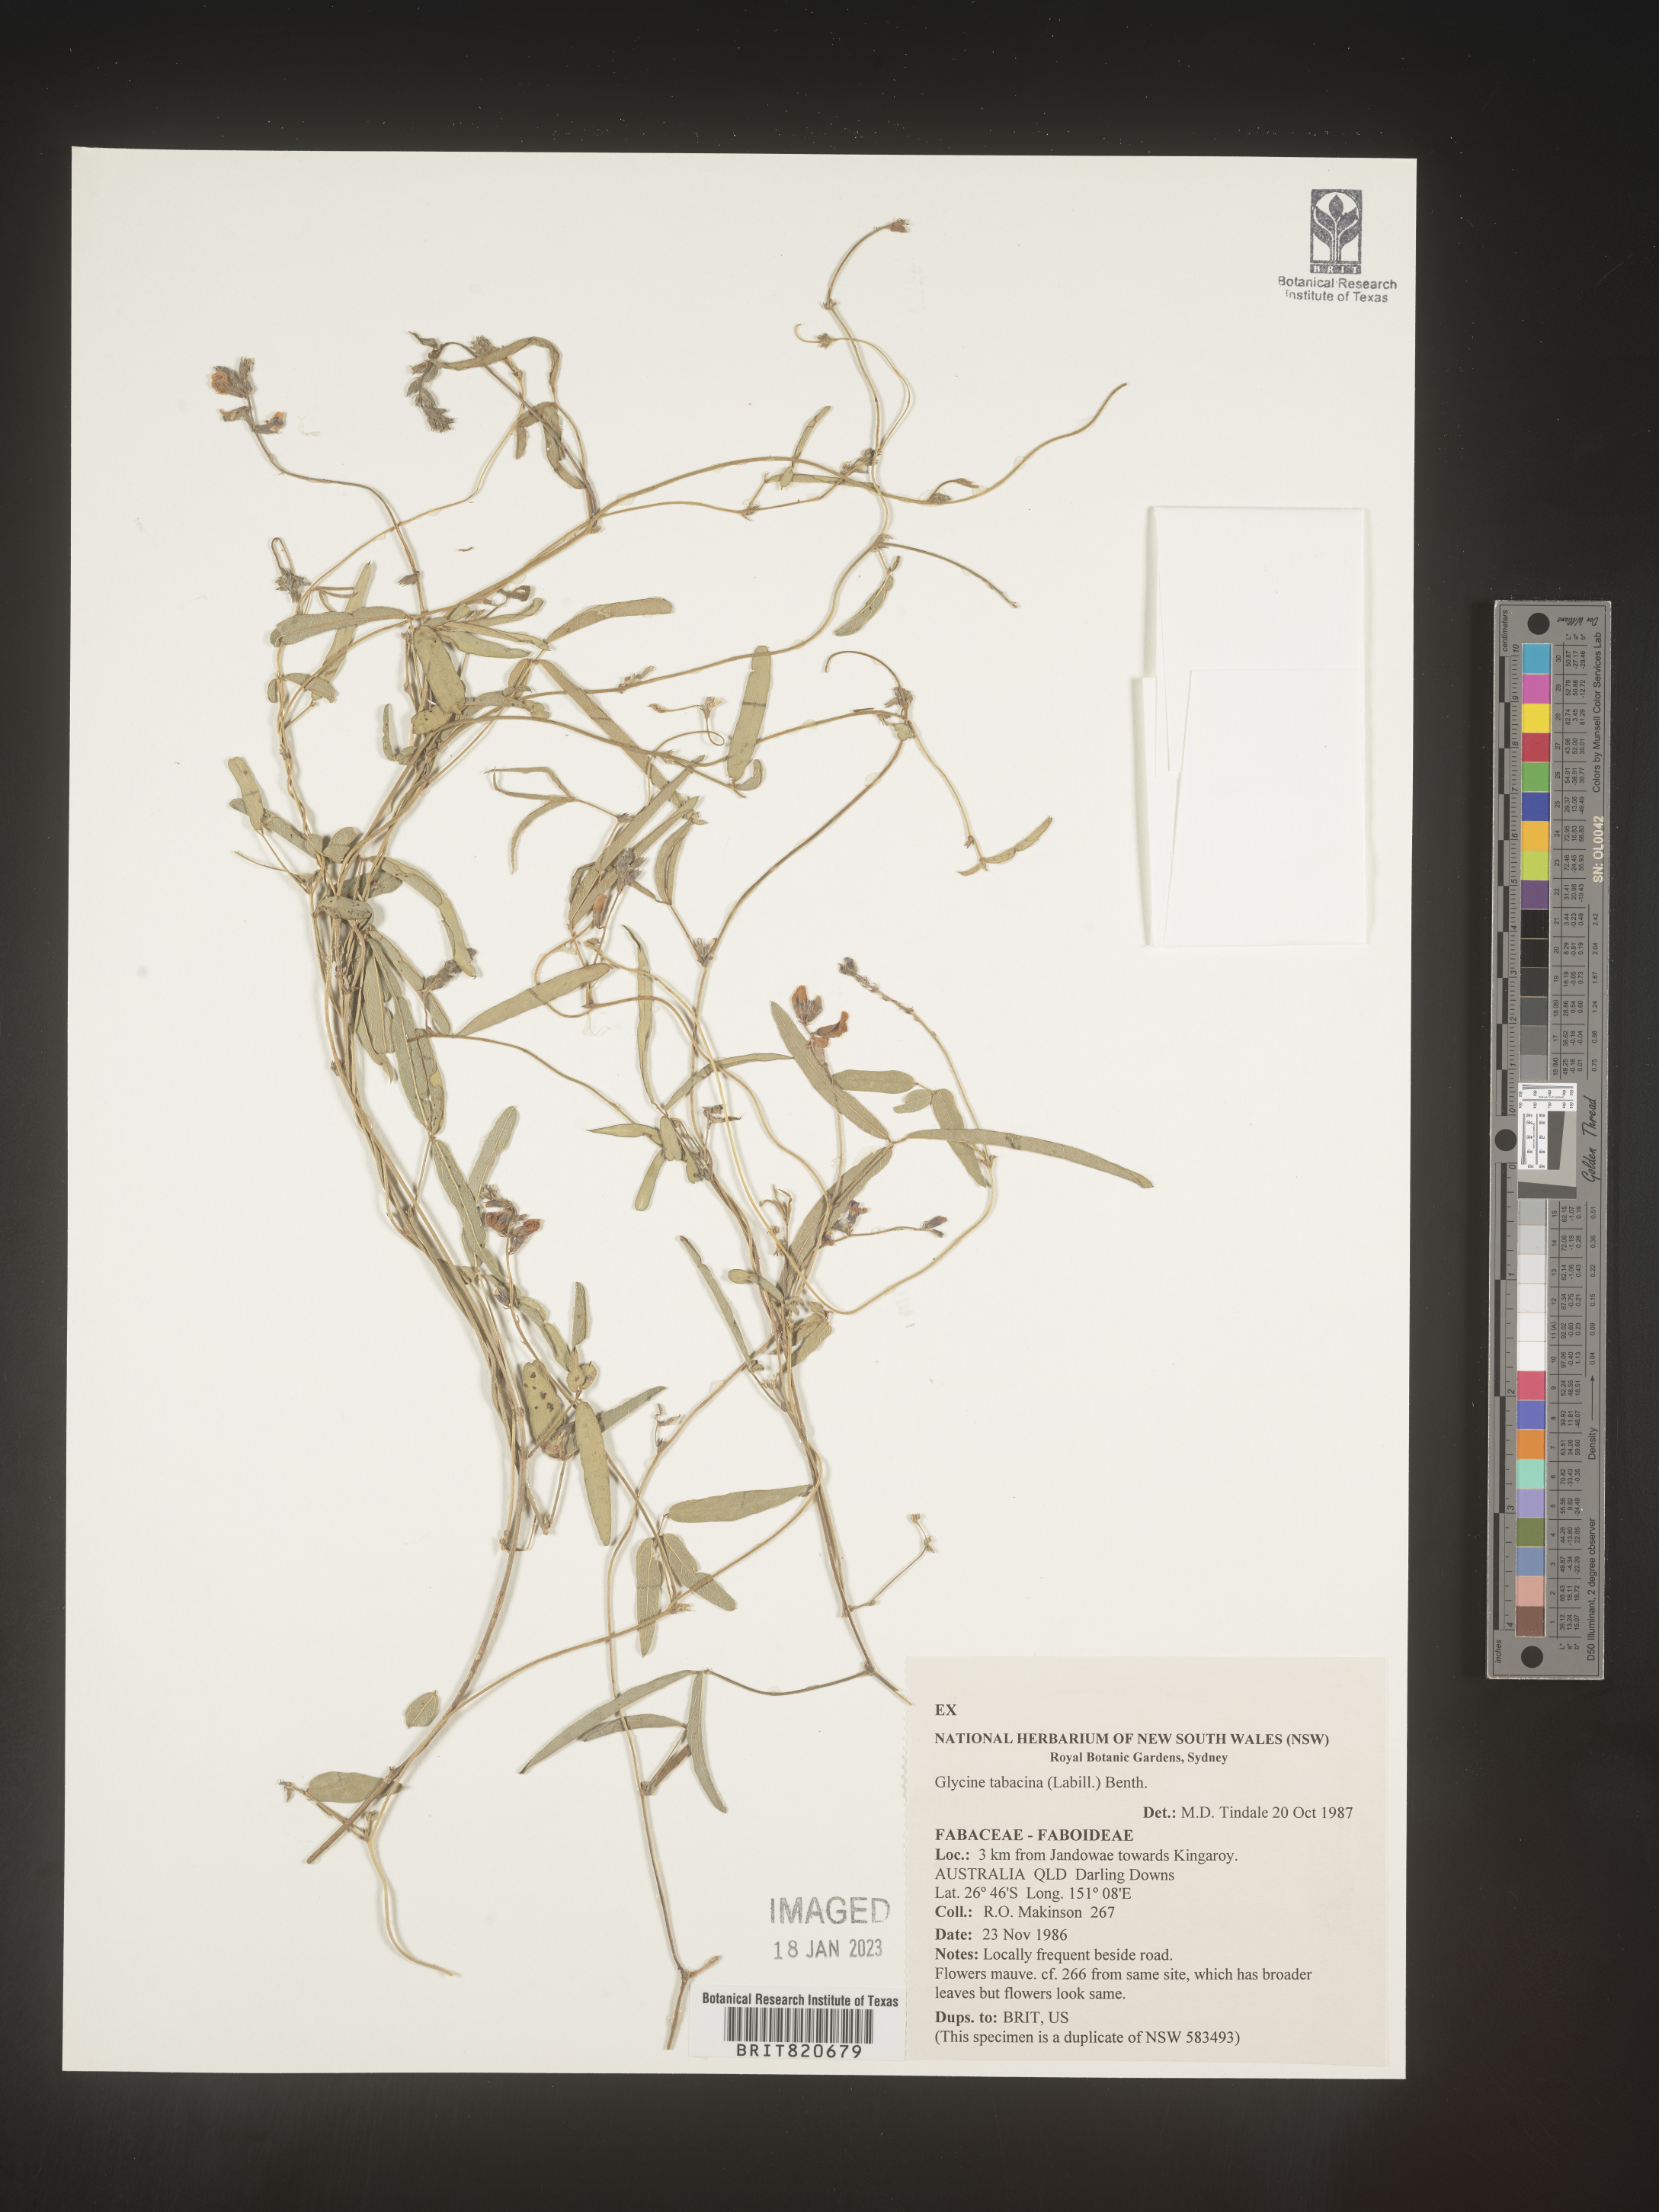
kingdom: Plantae
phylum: Tracheophyta
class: Magnoliopsida
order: Fabales
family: Fabaceae
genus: Glycine
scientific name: Glycine
